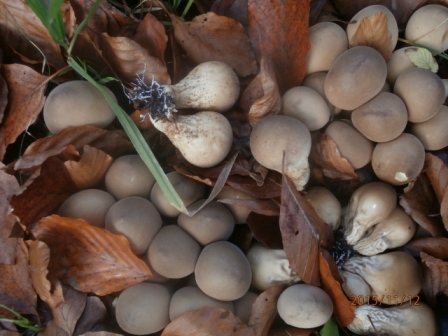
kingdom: Fungi
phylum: Basidiomycota
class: Agaricomycetes
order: Agaricales
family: Lycoperdaceae
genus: Apioperdon
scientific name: Apioperdon pyriforme
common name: pære-støvbold
